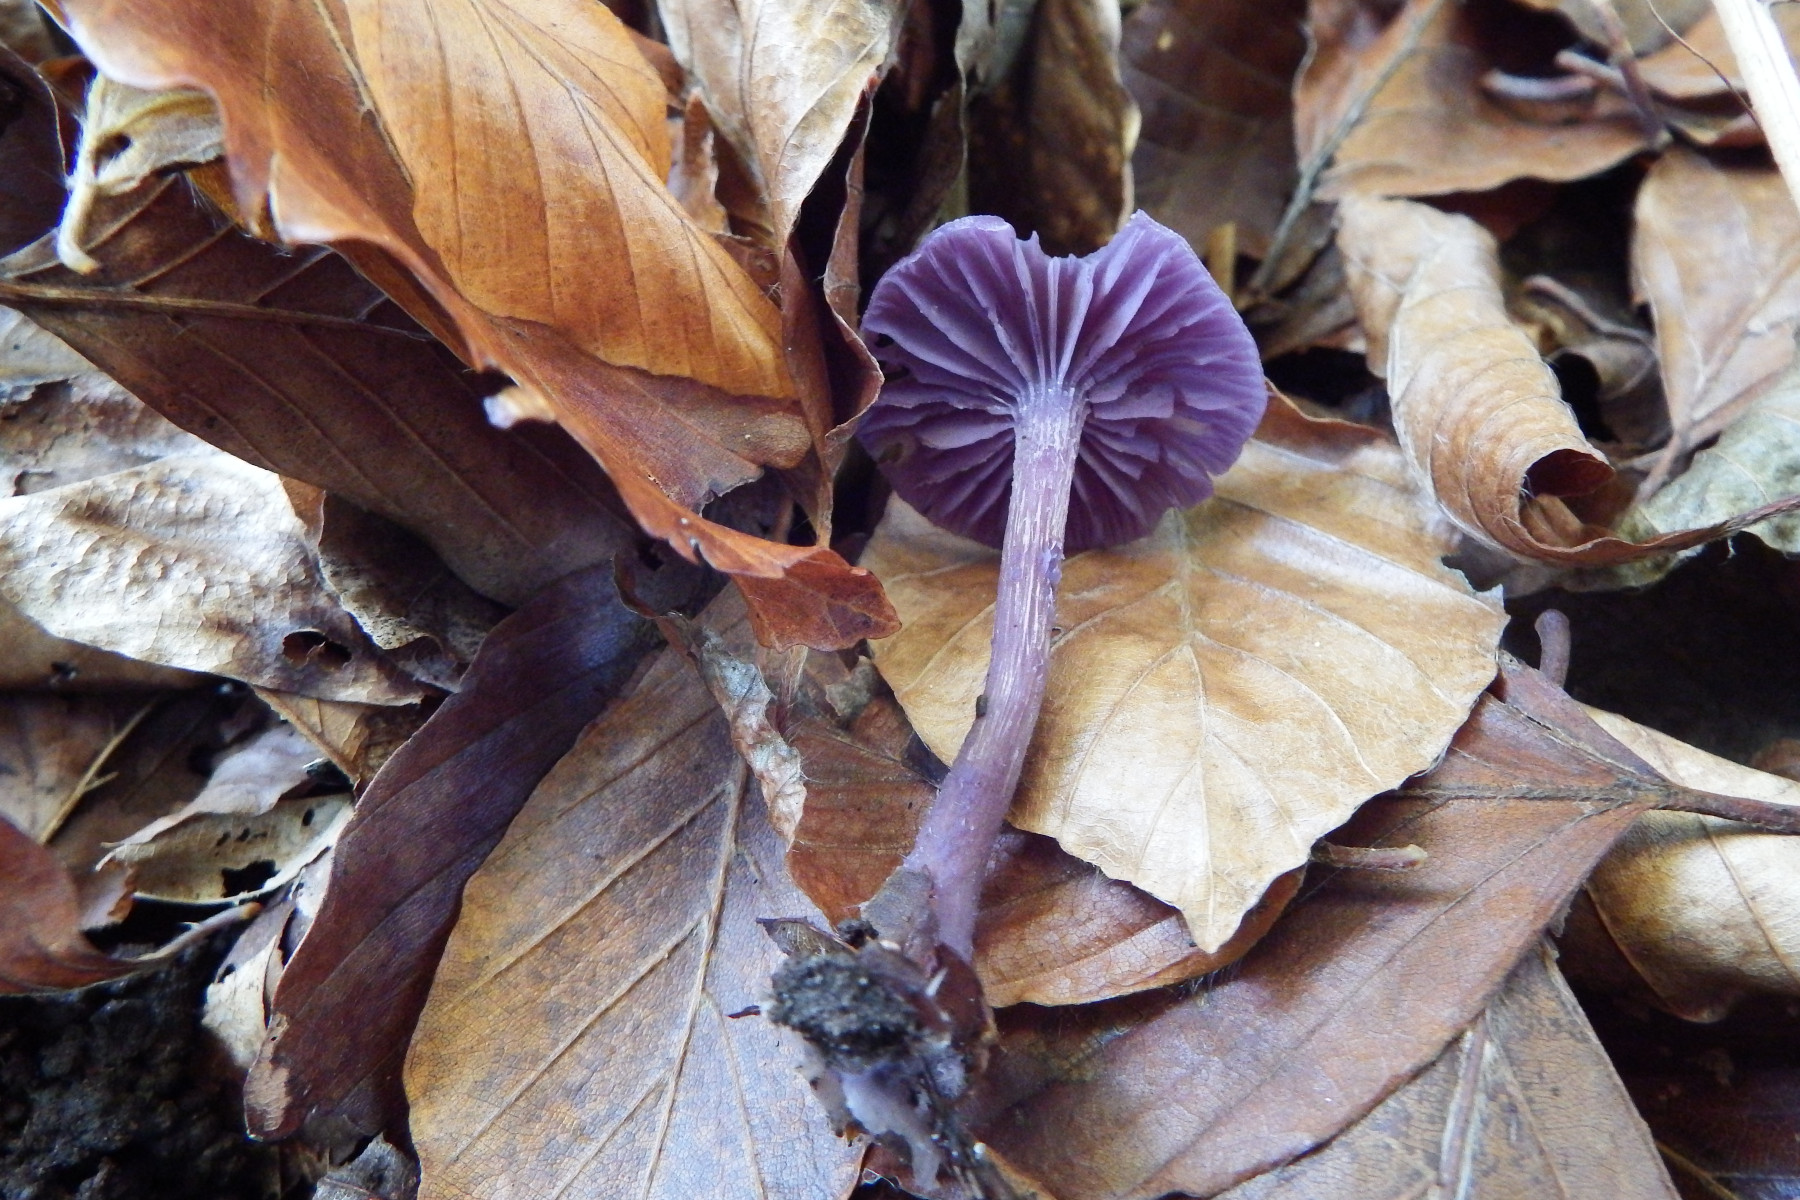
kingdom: Fungi
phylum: Basidiomycota
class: Agaricomycetes
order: Agaricales
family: Hydnangiaceae
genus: Laccaria
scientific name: Laccaria amethystina
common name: violet ametysthat
